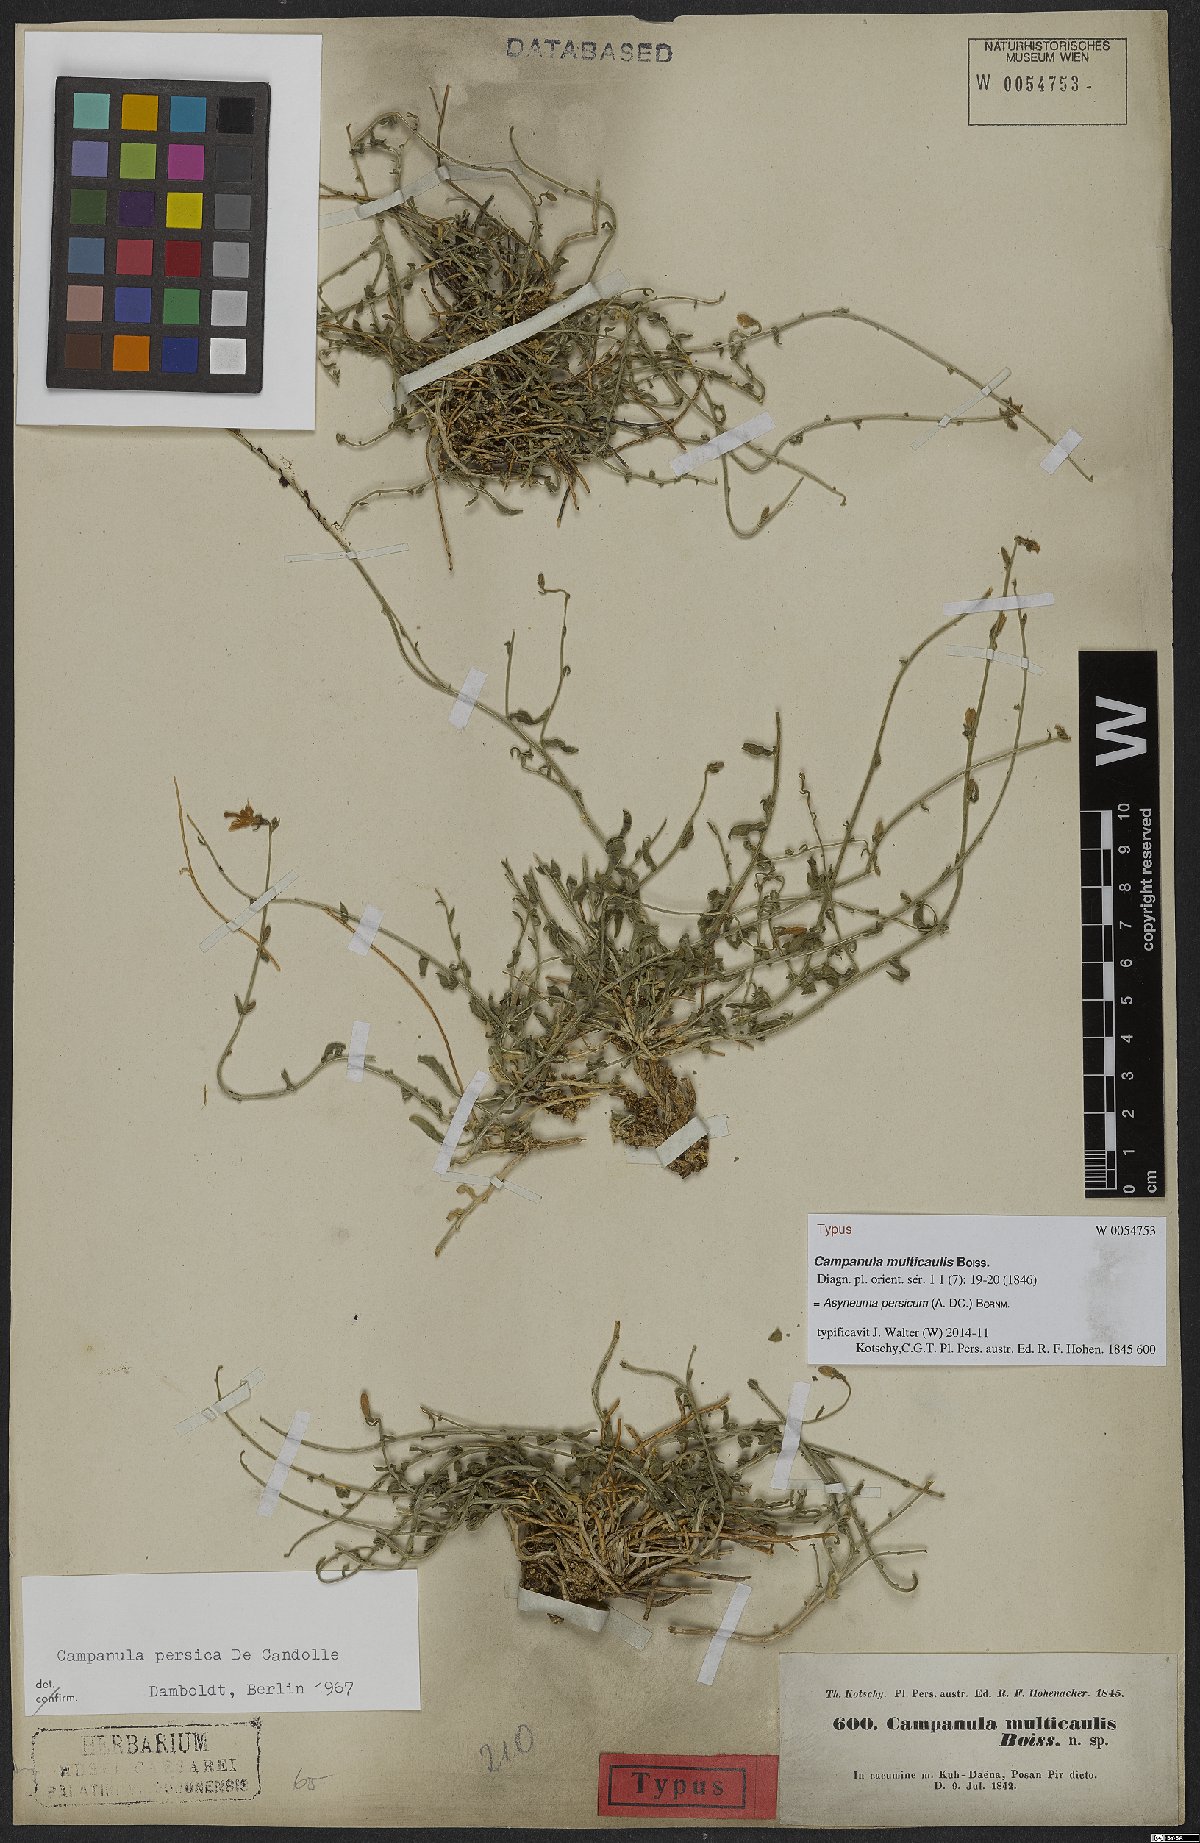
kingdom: Plantae
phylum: Tracheophyta
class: Magnoliopsida
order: Asterales
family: Campanulaceae
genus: Asyneuma
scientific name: Asyneuma persicum
